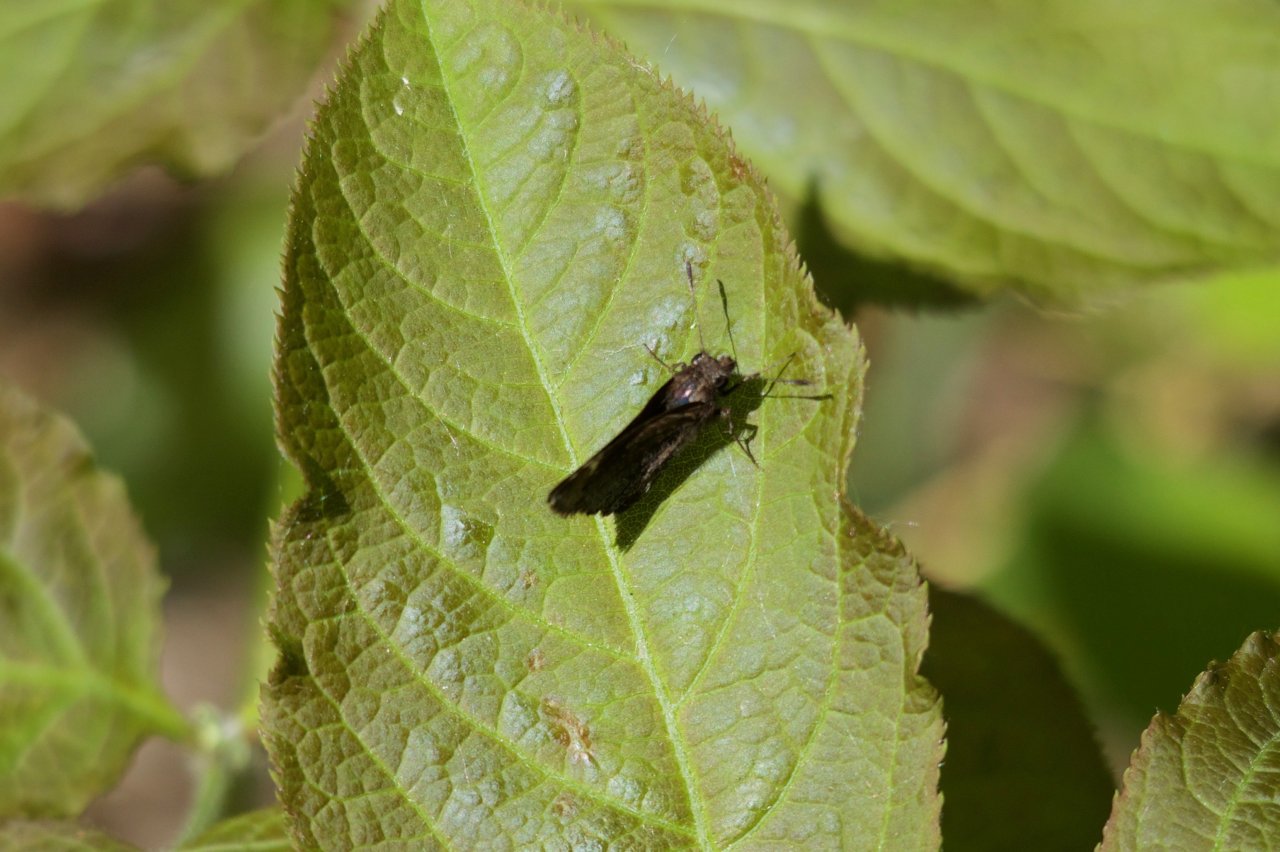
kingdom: Animalia
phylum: Arthropoda
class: Insecta
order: Lepidoptera
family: Hesperiidae
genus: Mastor
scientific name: Mastor vialis
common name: Common Roadside-Skipper
